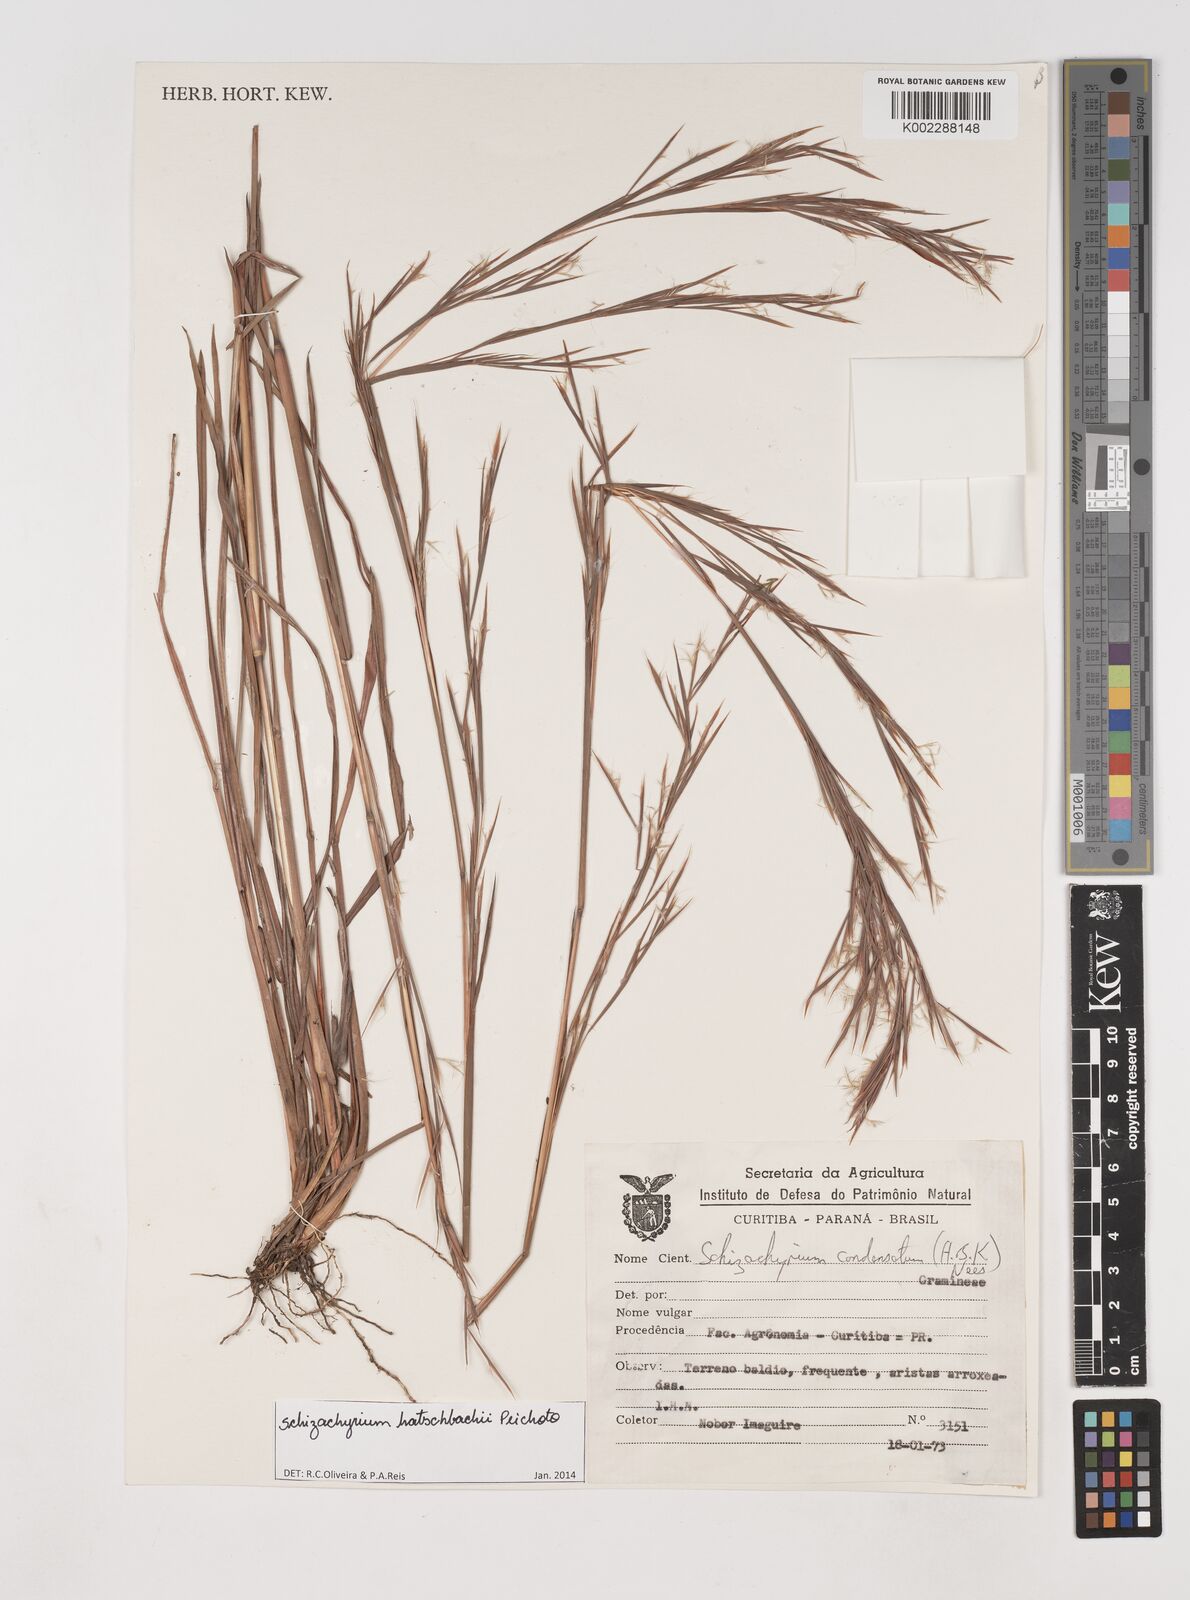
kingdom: Plantae
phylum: Tracheophyta
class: Liliopsida
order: Poales
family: Poaceae
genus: Schizachyrium
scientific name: Schizachyrium hatschbachii
